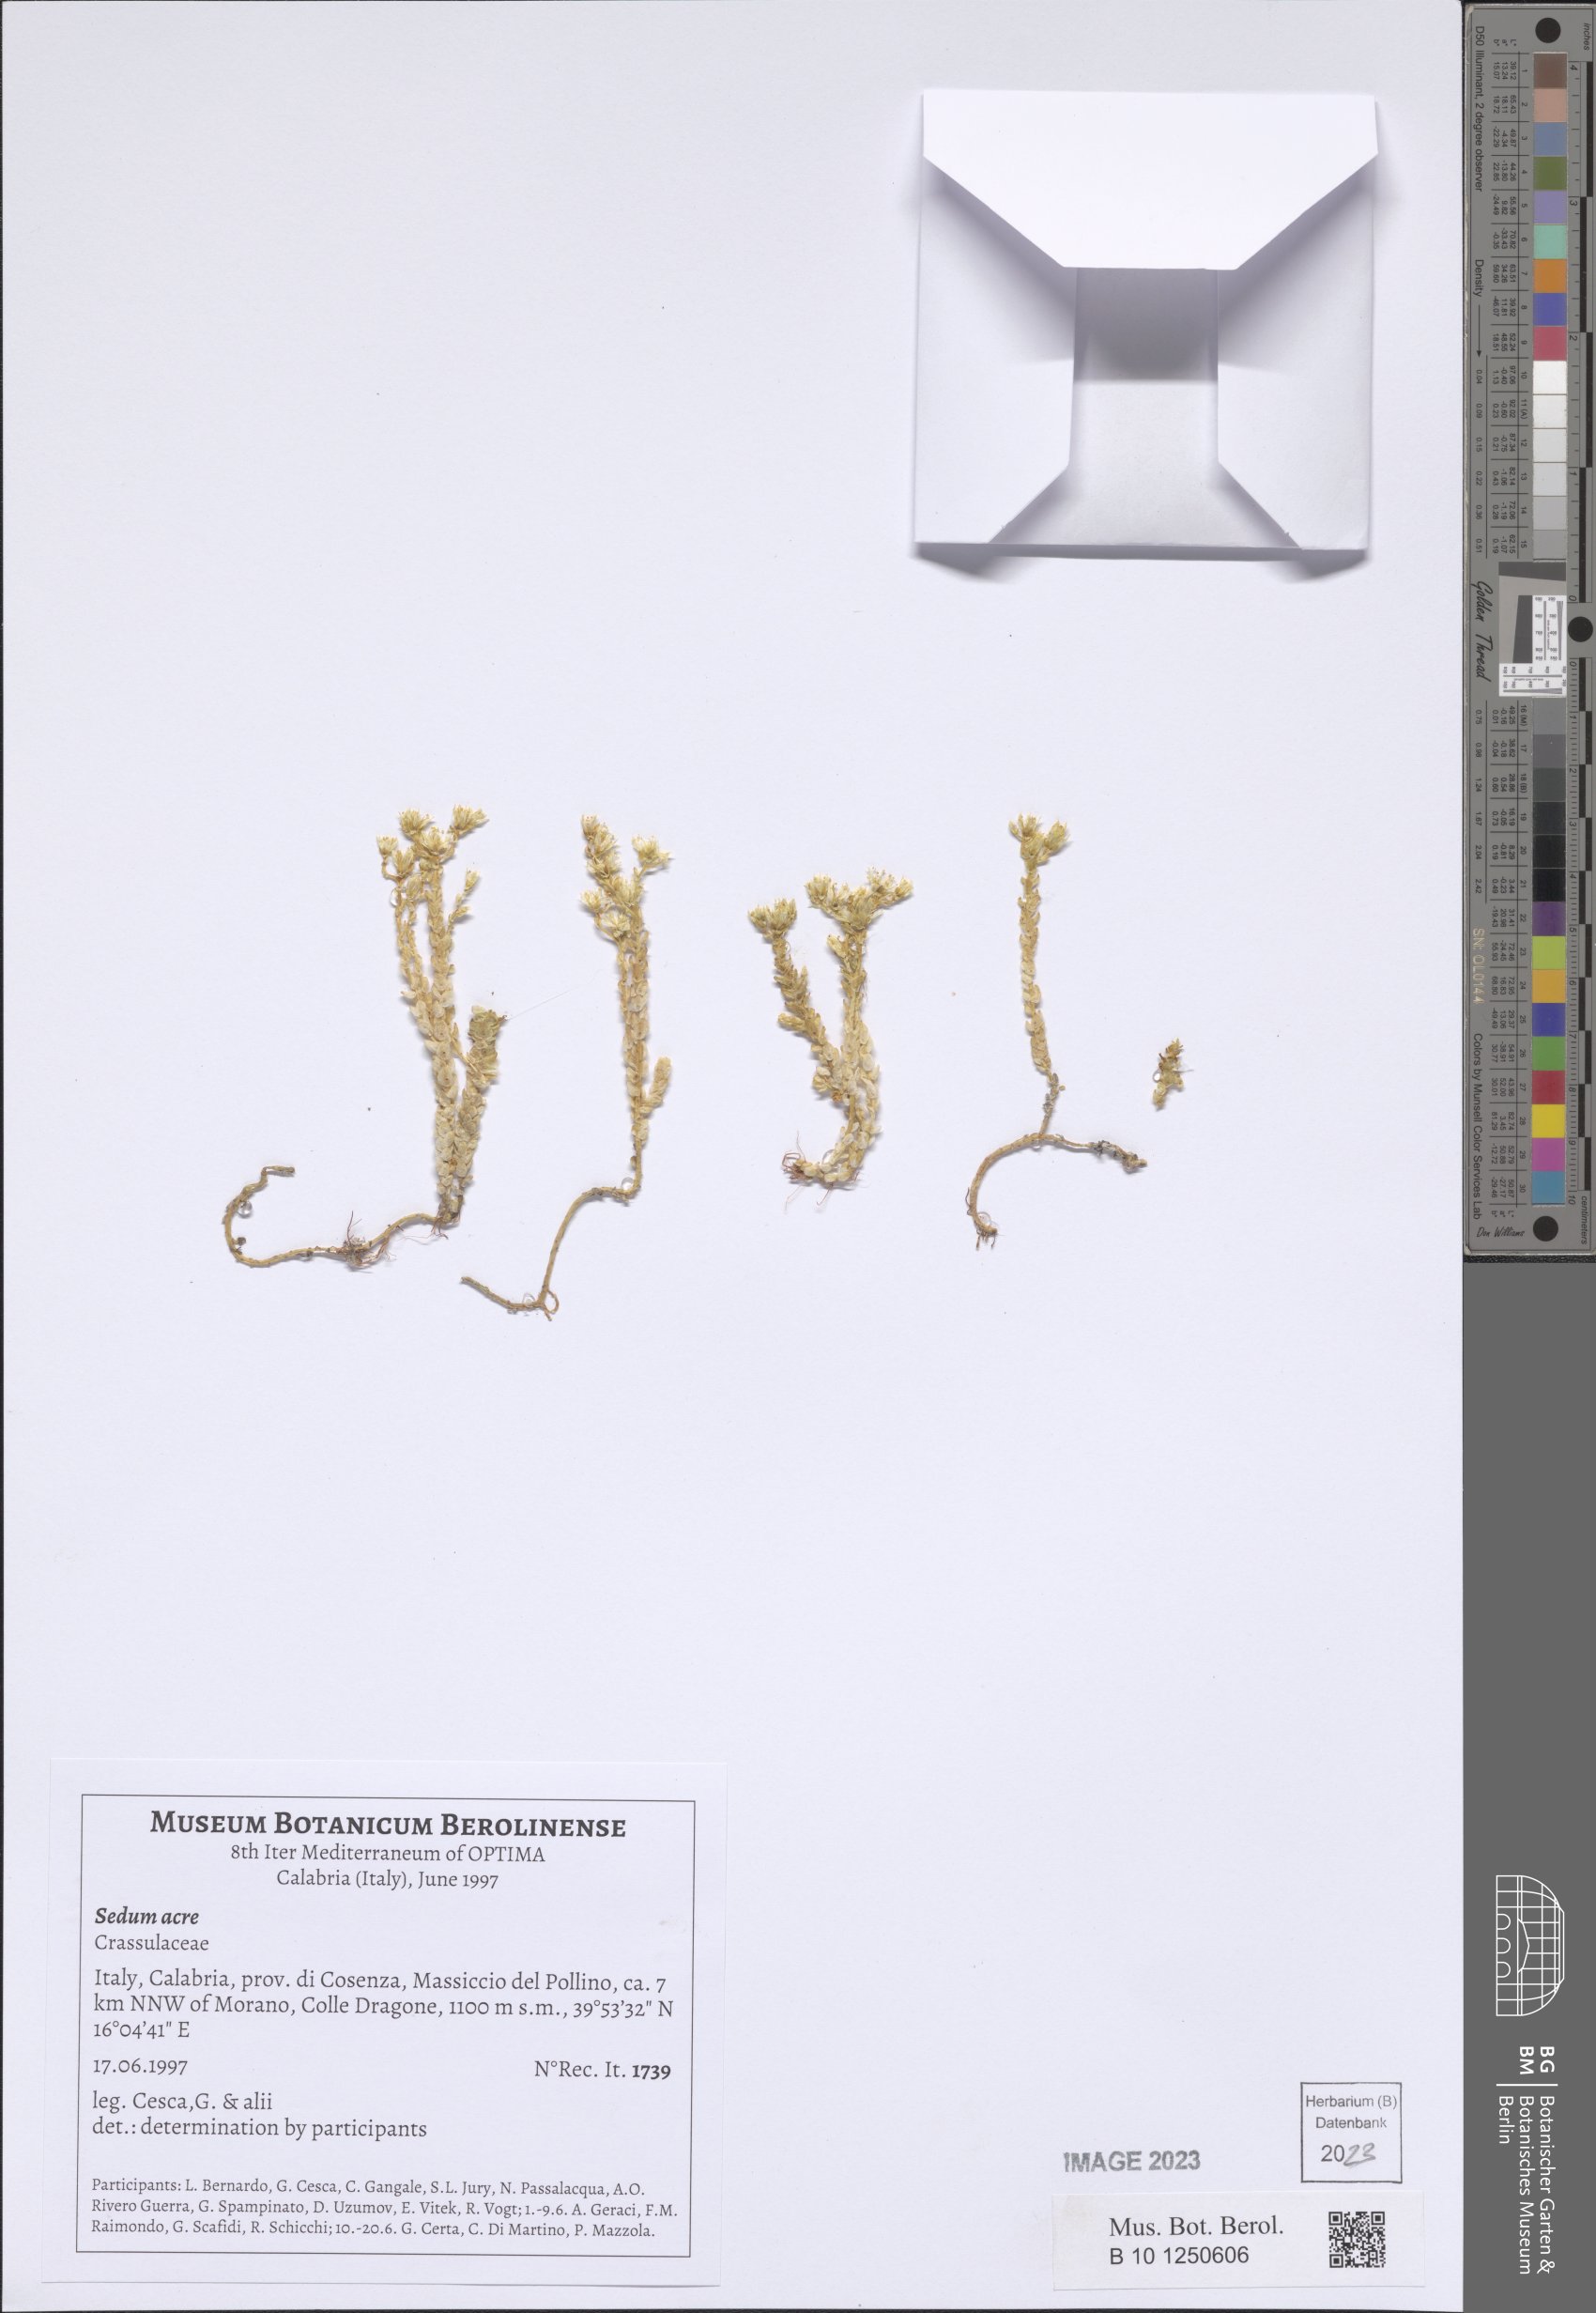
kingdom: Plantae
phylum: Tracheophyta
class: Magnoliopsida
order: Saxifragales
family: Crassulaceae
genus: Sedum
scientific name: Sedum acre
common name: Biting stonecrop
